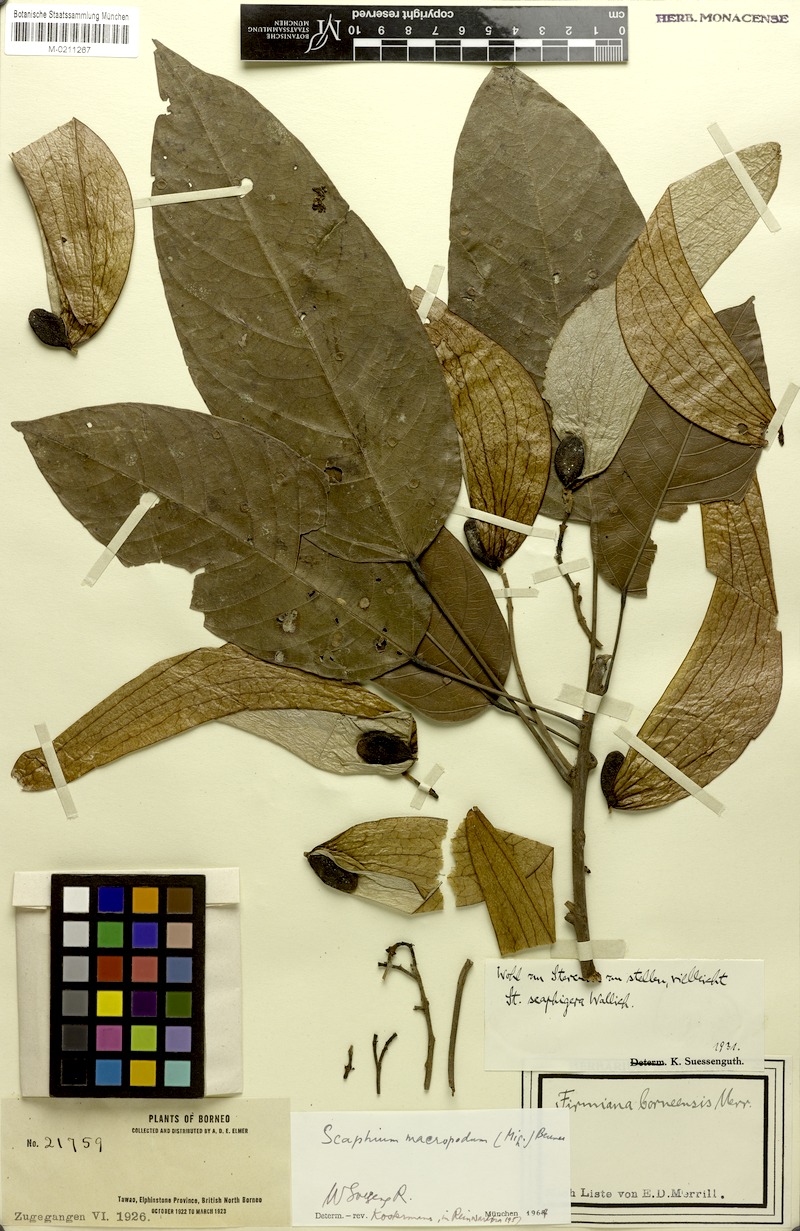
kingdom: Plantae
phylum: Tracheophyta
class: Magnoliopsida
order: Malvales
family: Malvaceae
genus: Scaphium
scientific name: Scaphium macropodum
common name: Malva nut
